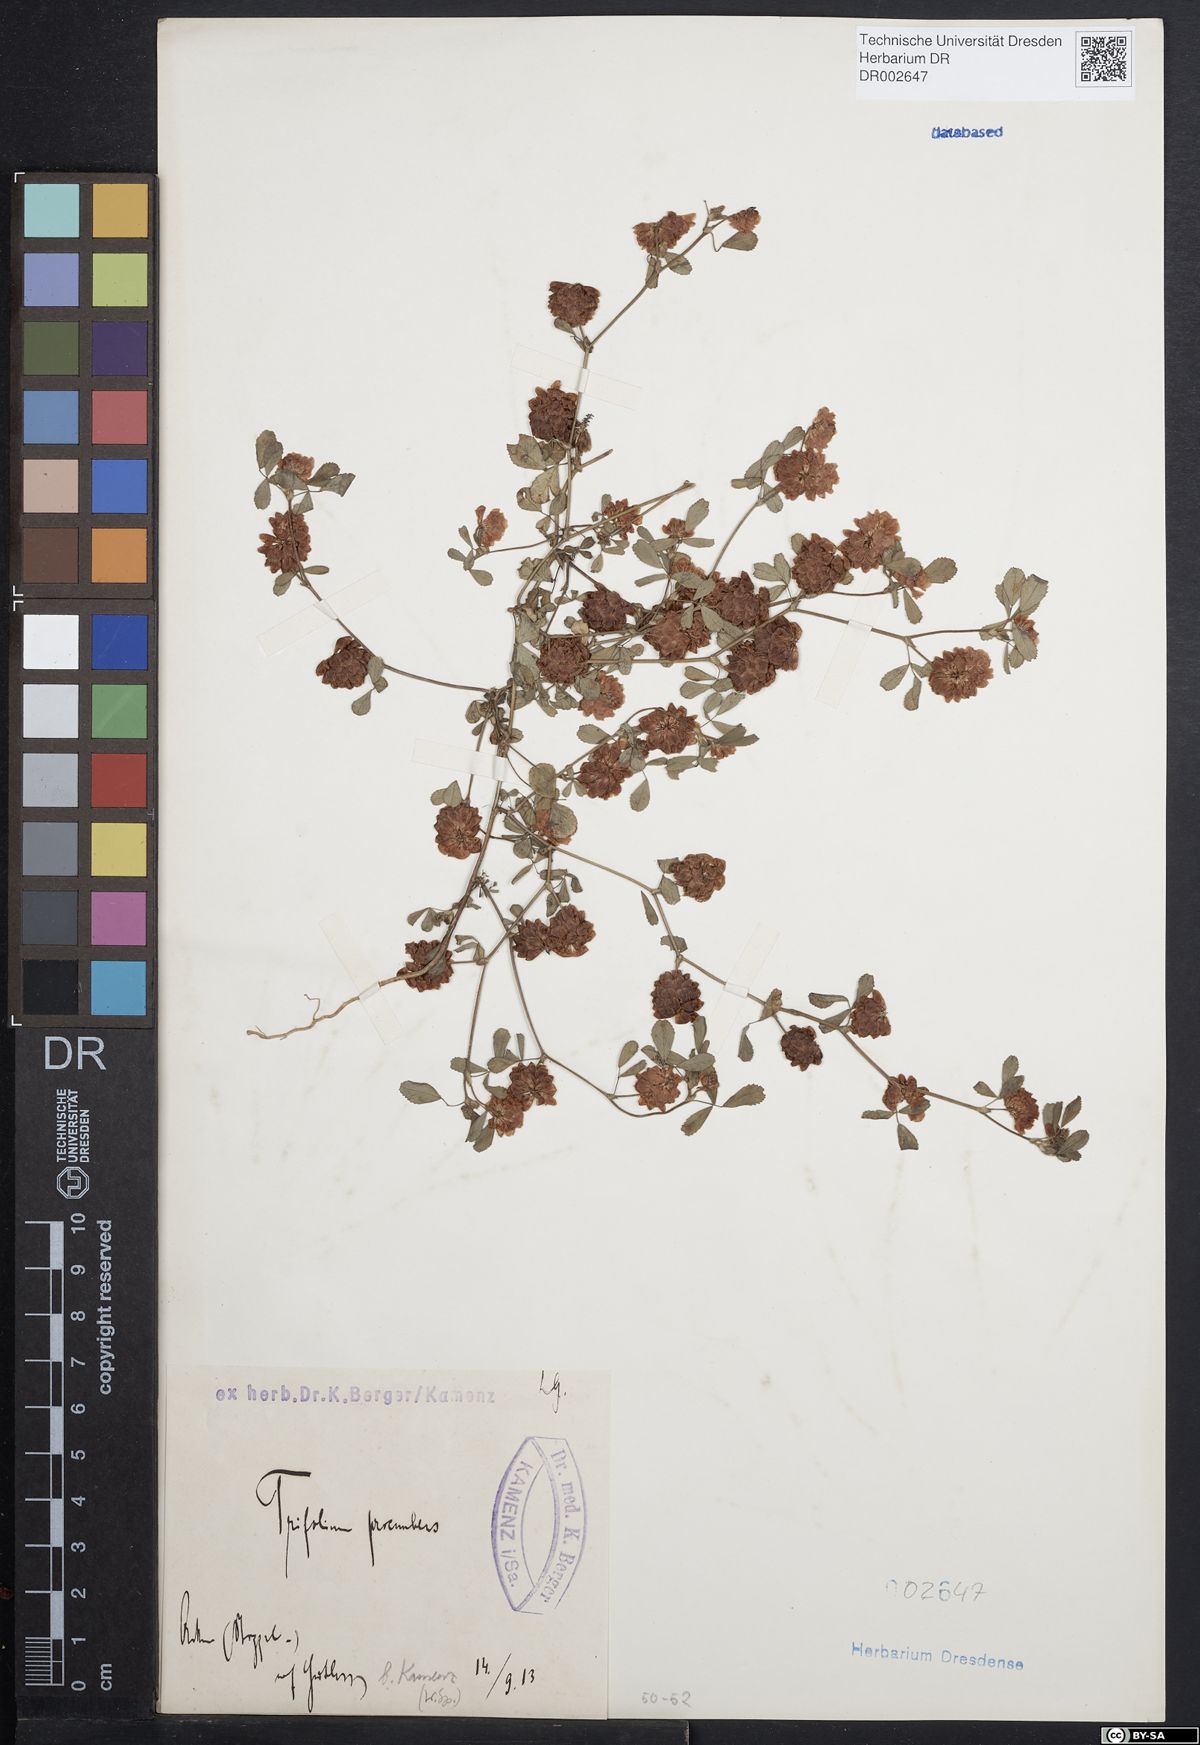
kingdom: Plantae
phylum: Tracheophyta
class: Magnoliopsida
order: Fabales
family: Fabaceae
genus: Trifolium
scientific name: Trifolium campestre
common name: Field clover
